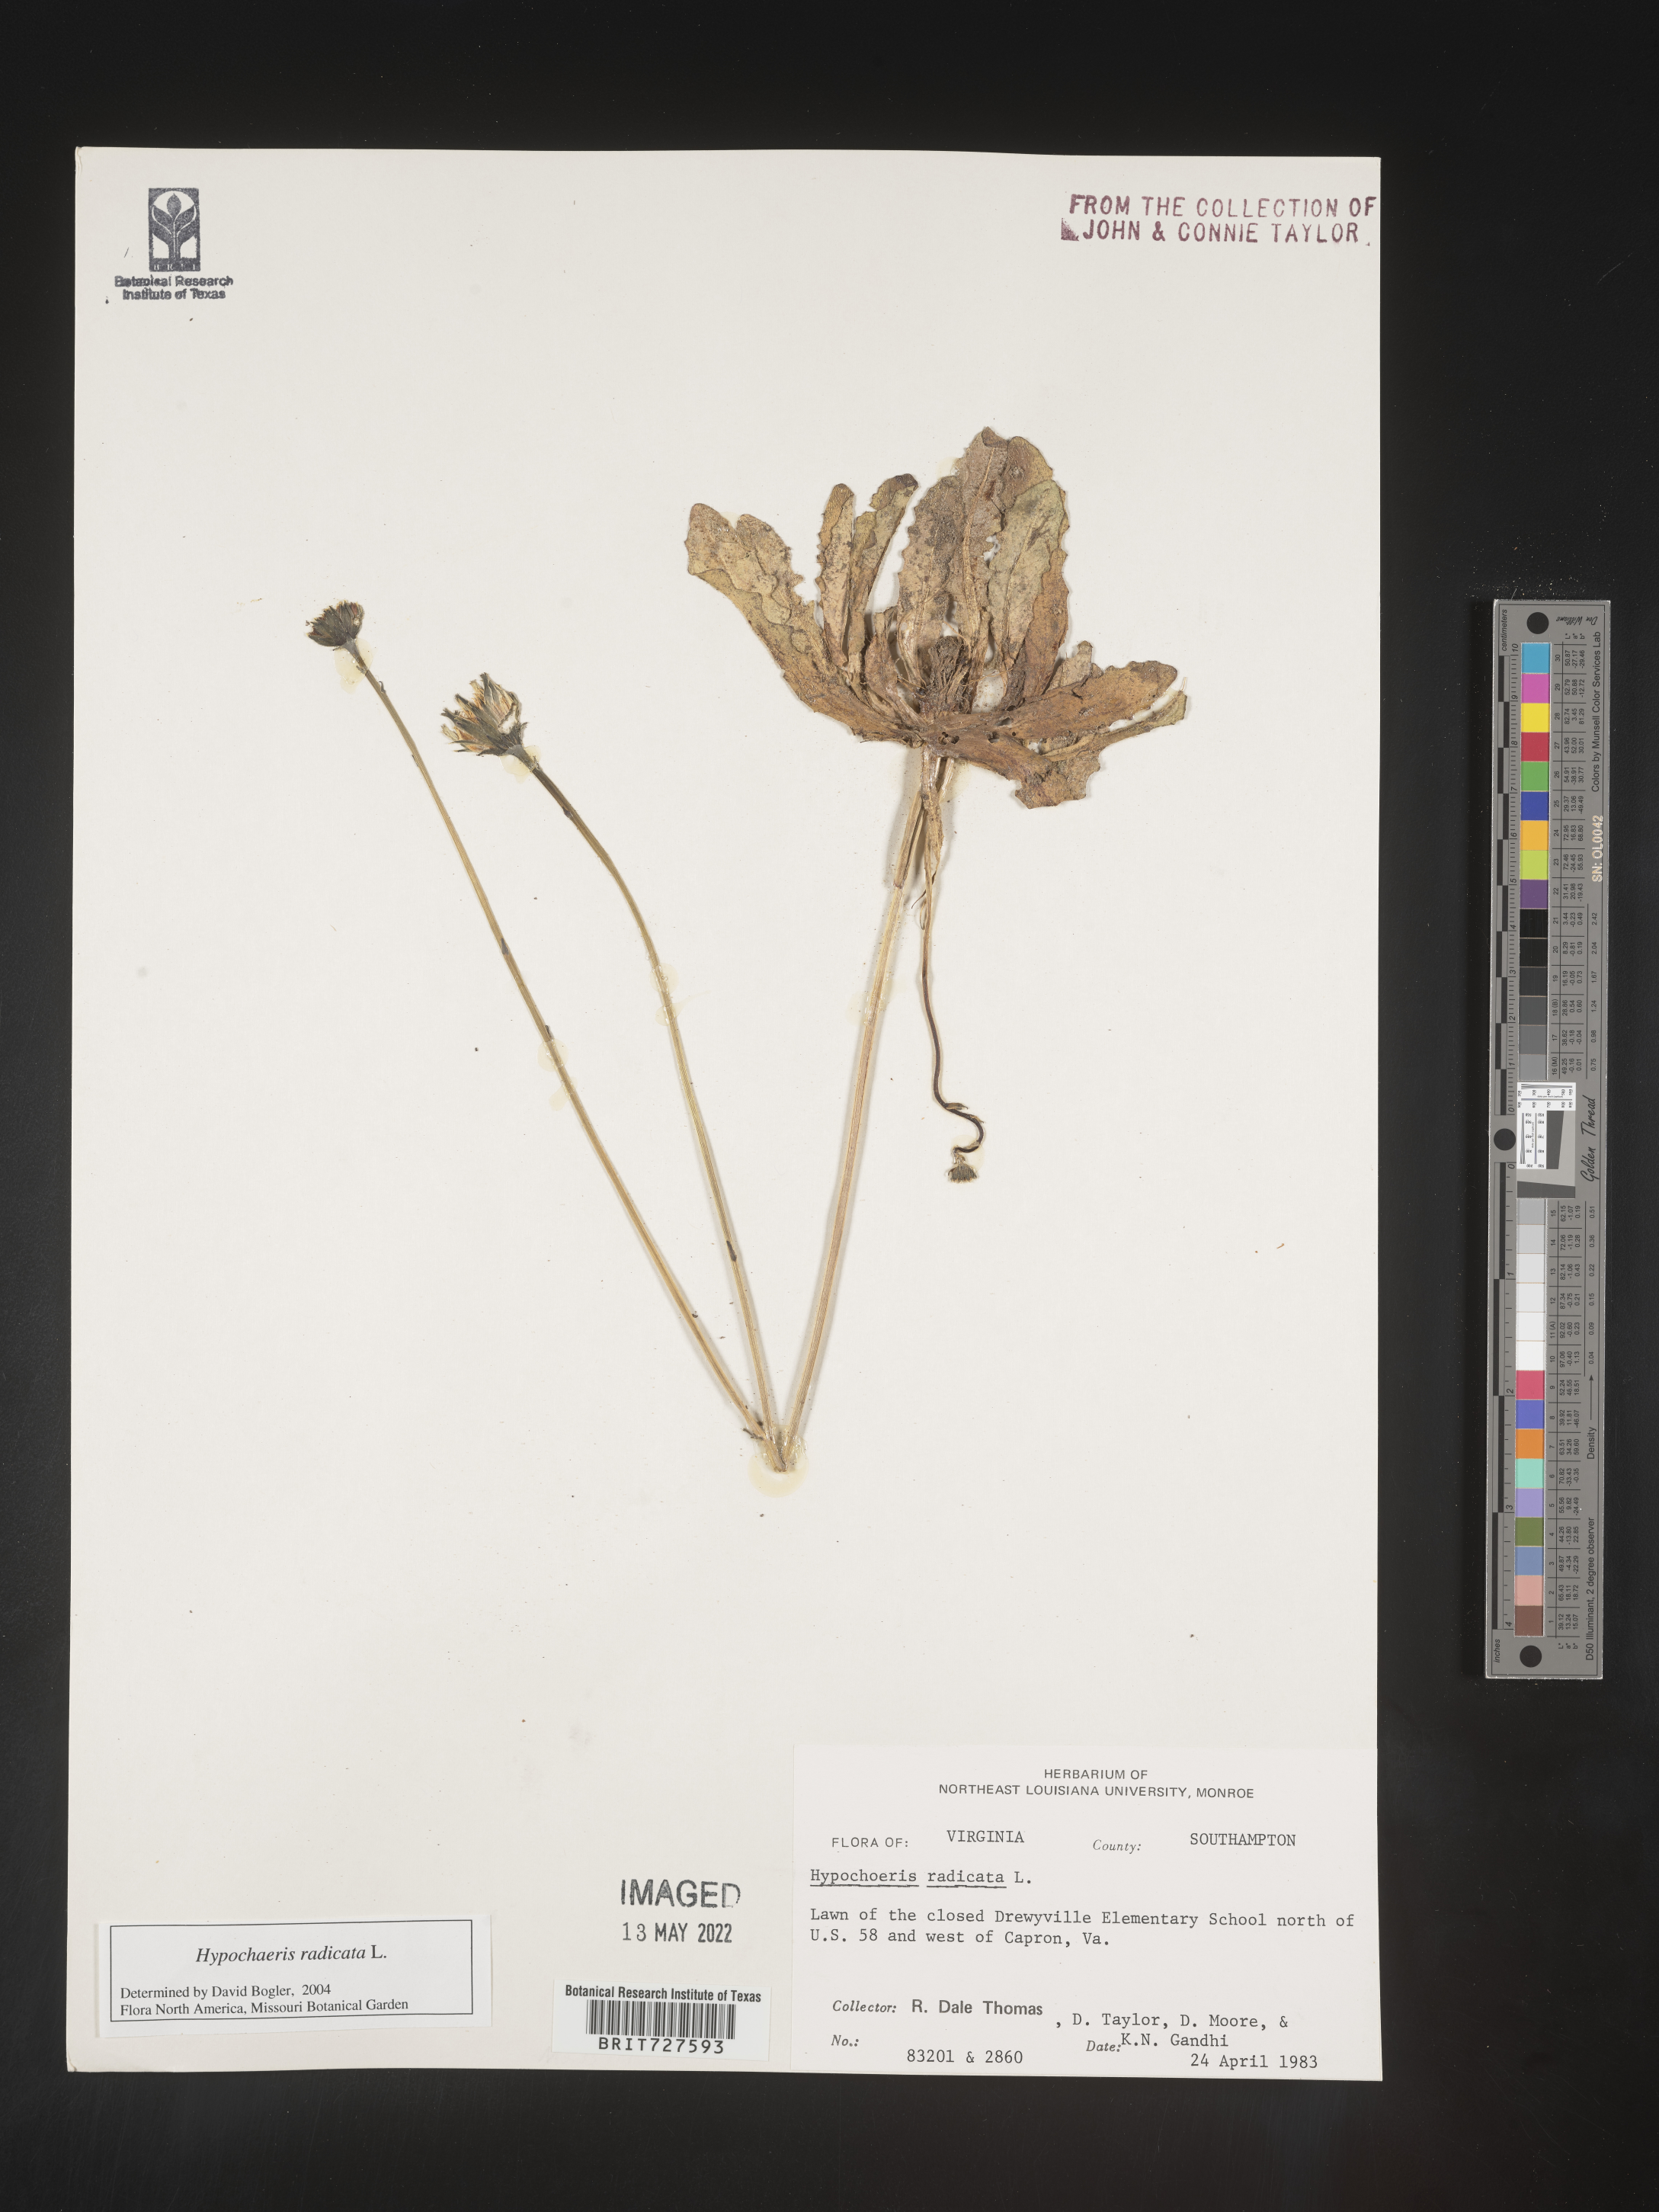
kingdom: Plantae
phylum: Tracheophyta
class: Magnoliopsida
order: Asterales
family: Asteraceae
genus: Hypochaeris
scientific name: Hypochaeris radicata
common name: Flatweed
